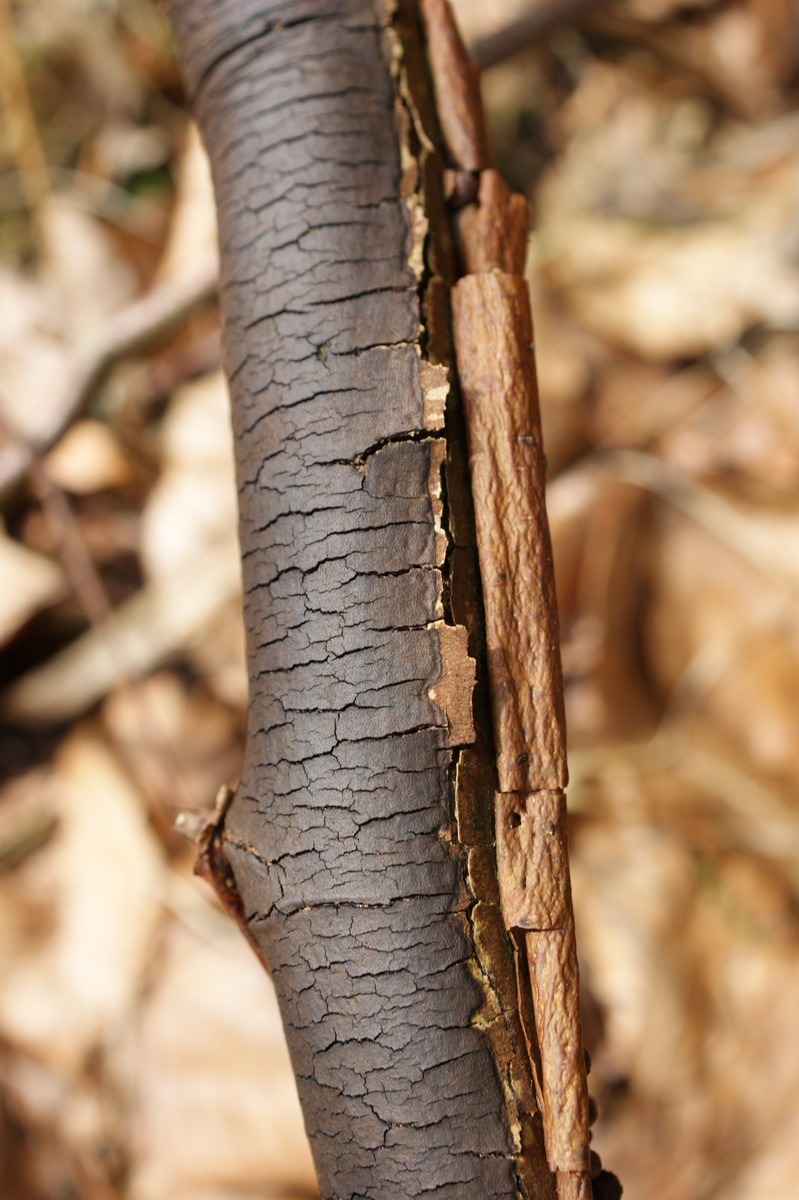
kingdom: Fungi
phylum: Ascomycota
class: Sordariomycetes
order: Xylariales
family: Diatrypaceae
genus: Diatrype
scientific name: Diatrype decorticata
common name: barksprænger-kulskorpe
